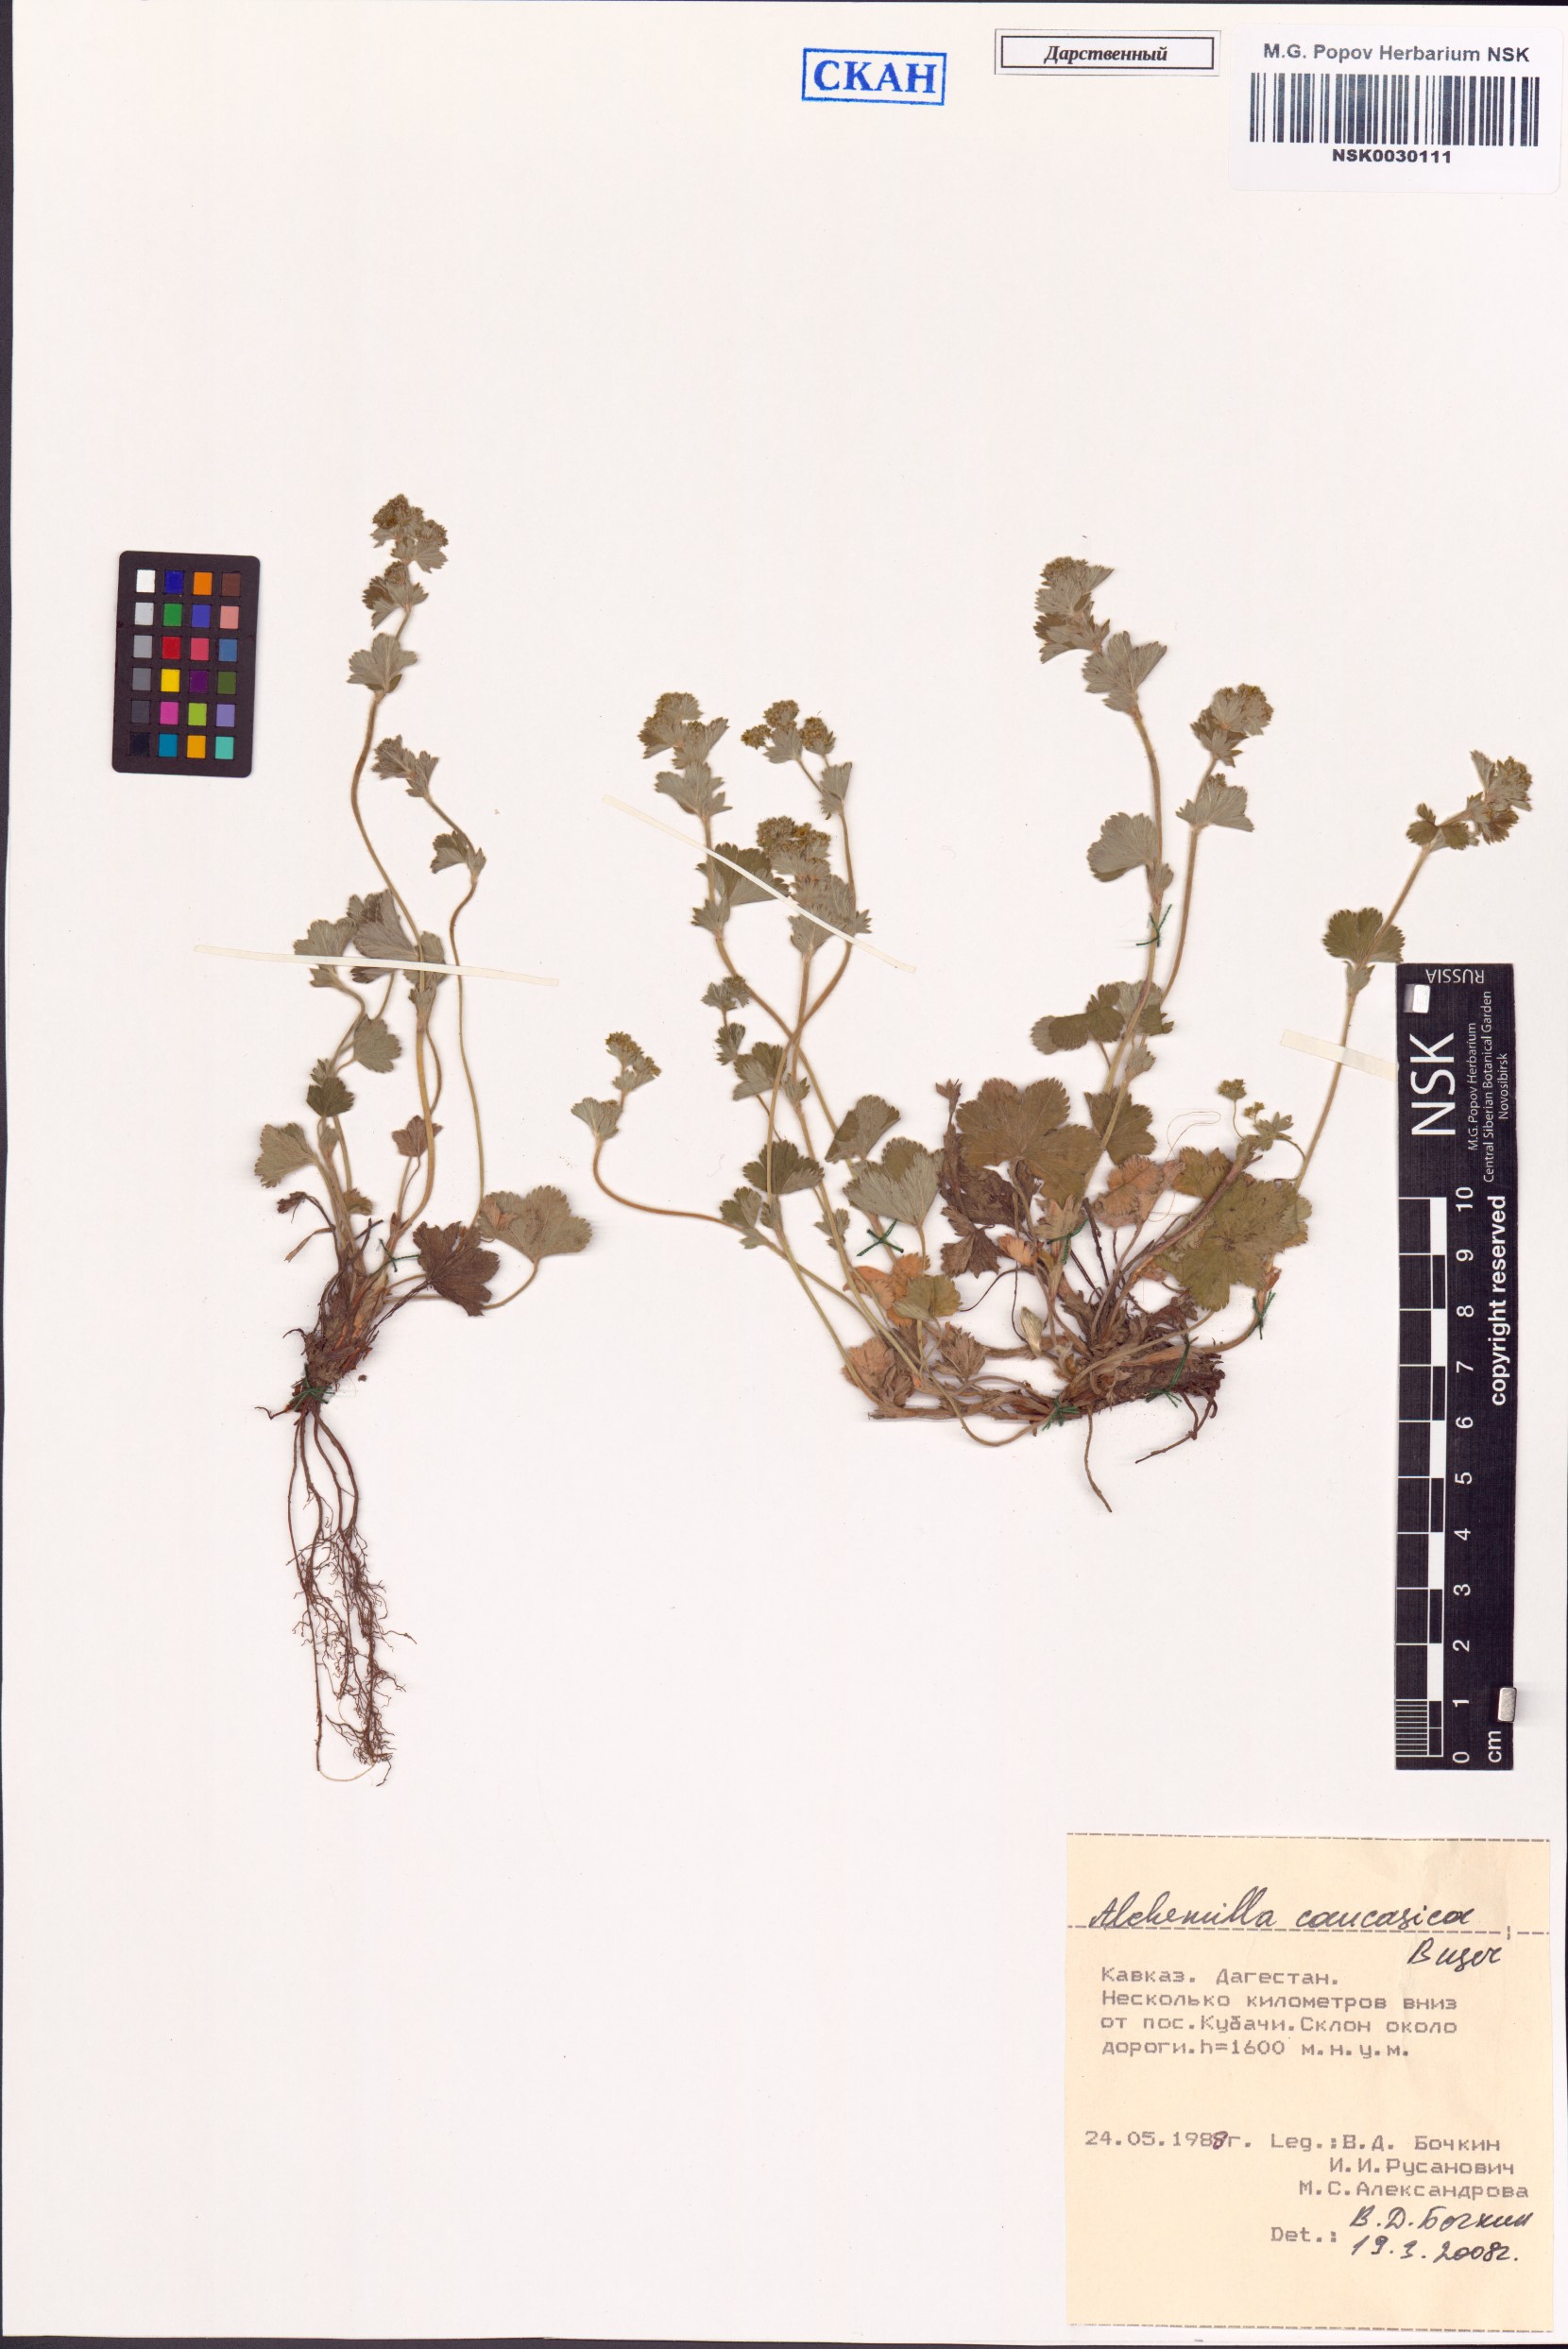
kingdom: Plantae
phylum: Tracheophyta
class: Magnoliopsida
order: Rosales
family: Rosaceae
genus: Alchemilla
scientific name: Alchemilla caucasica
